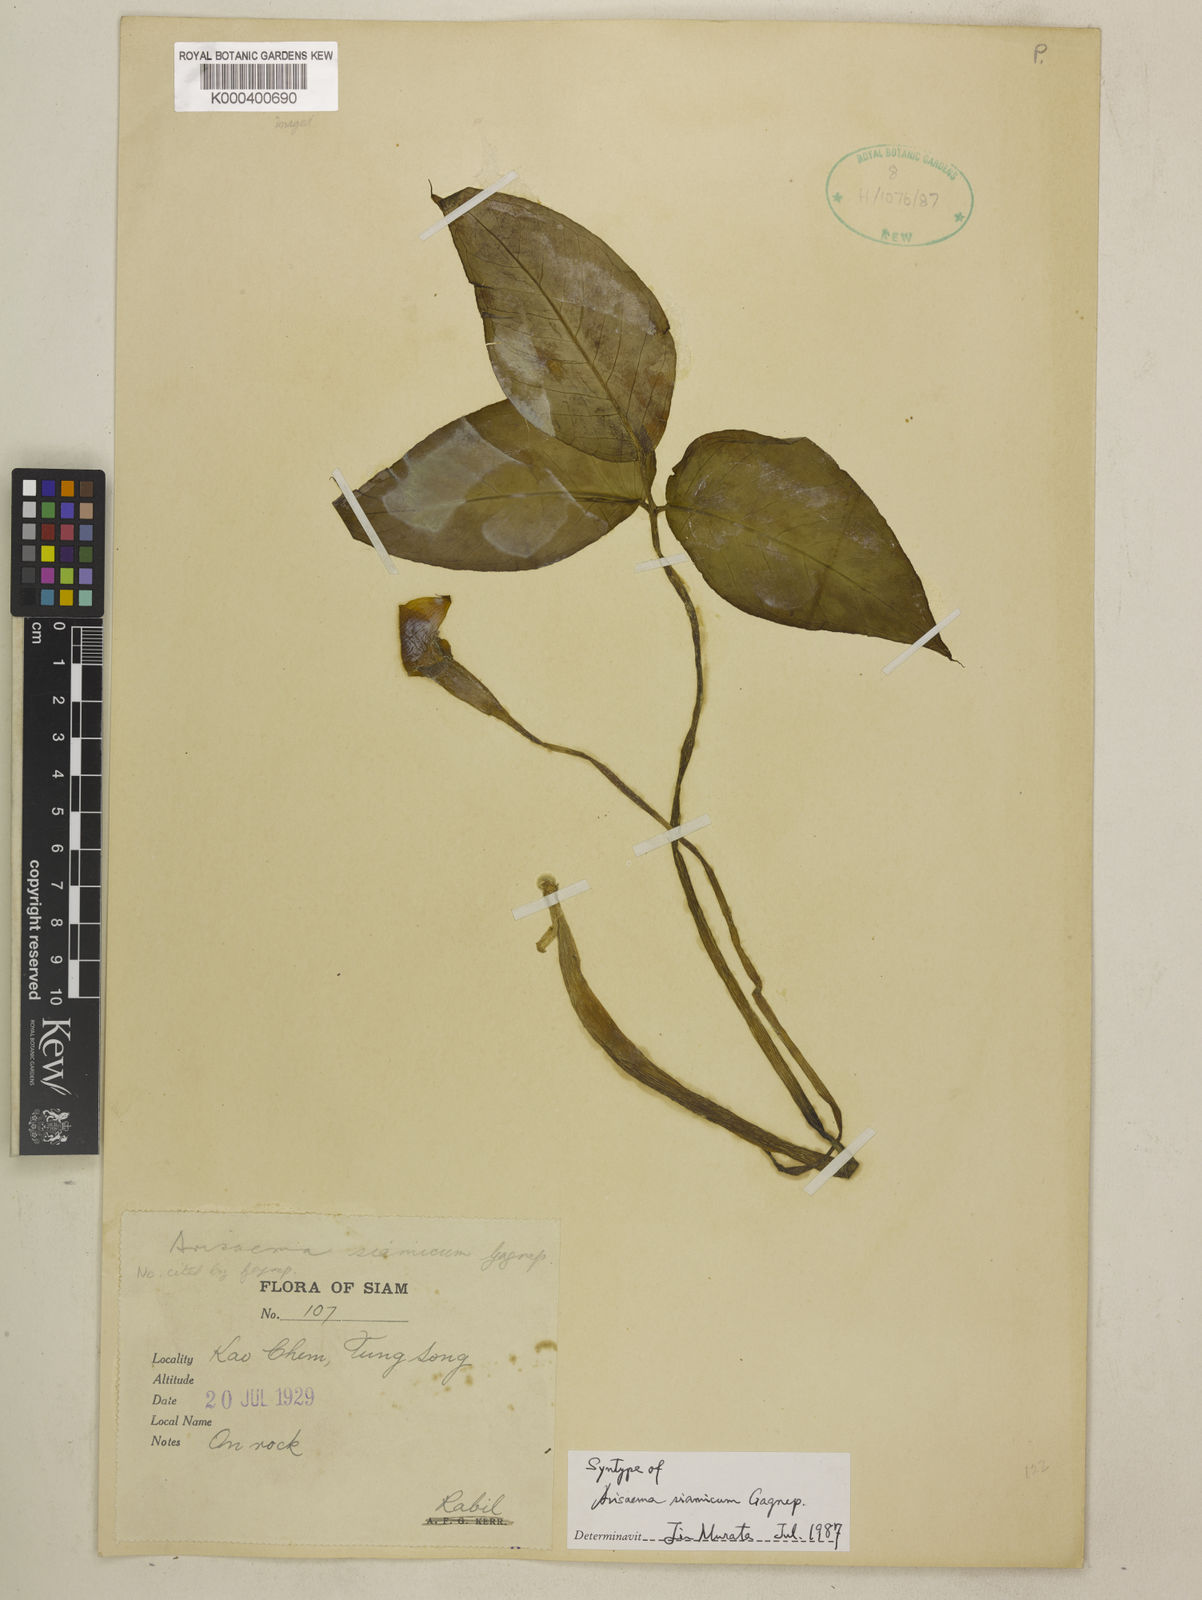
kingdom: Plantae
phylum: Tracheophyta
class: Liliopsida
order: Alismatales
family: Araceae
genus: Arisaema
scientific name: Arisaema siamicum
